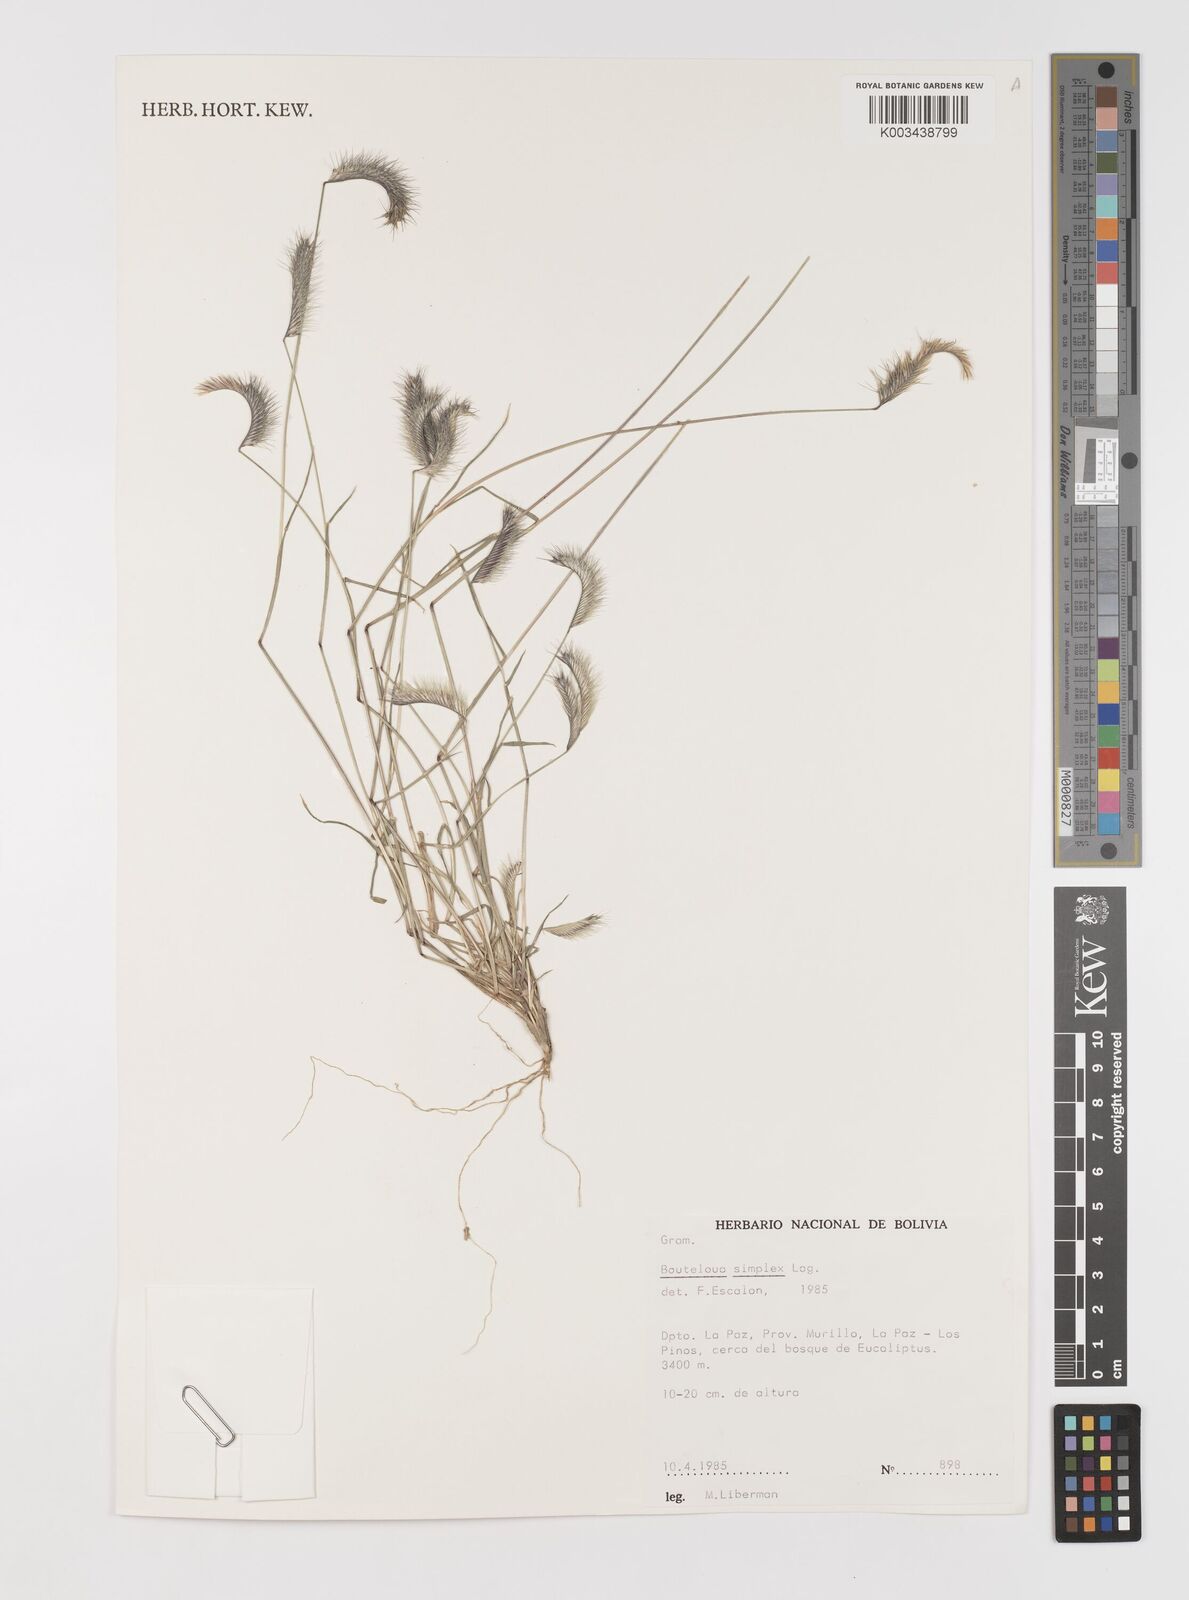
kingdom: Plantae
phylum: Tracheophyta
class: Liliopsida
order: Poales
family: Poaceae
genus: Bouteloua
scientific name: Bouteloua simplex
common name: Mat grama
